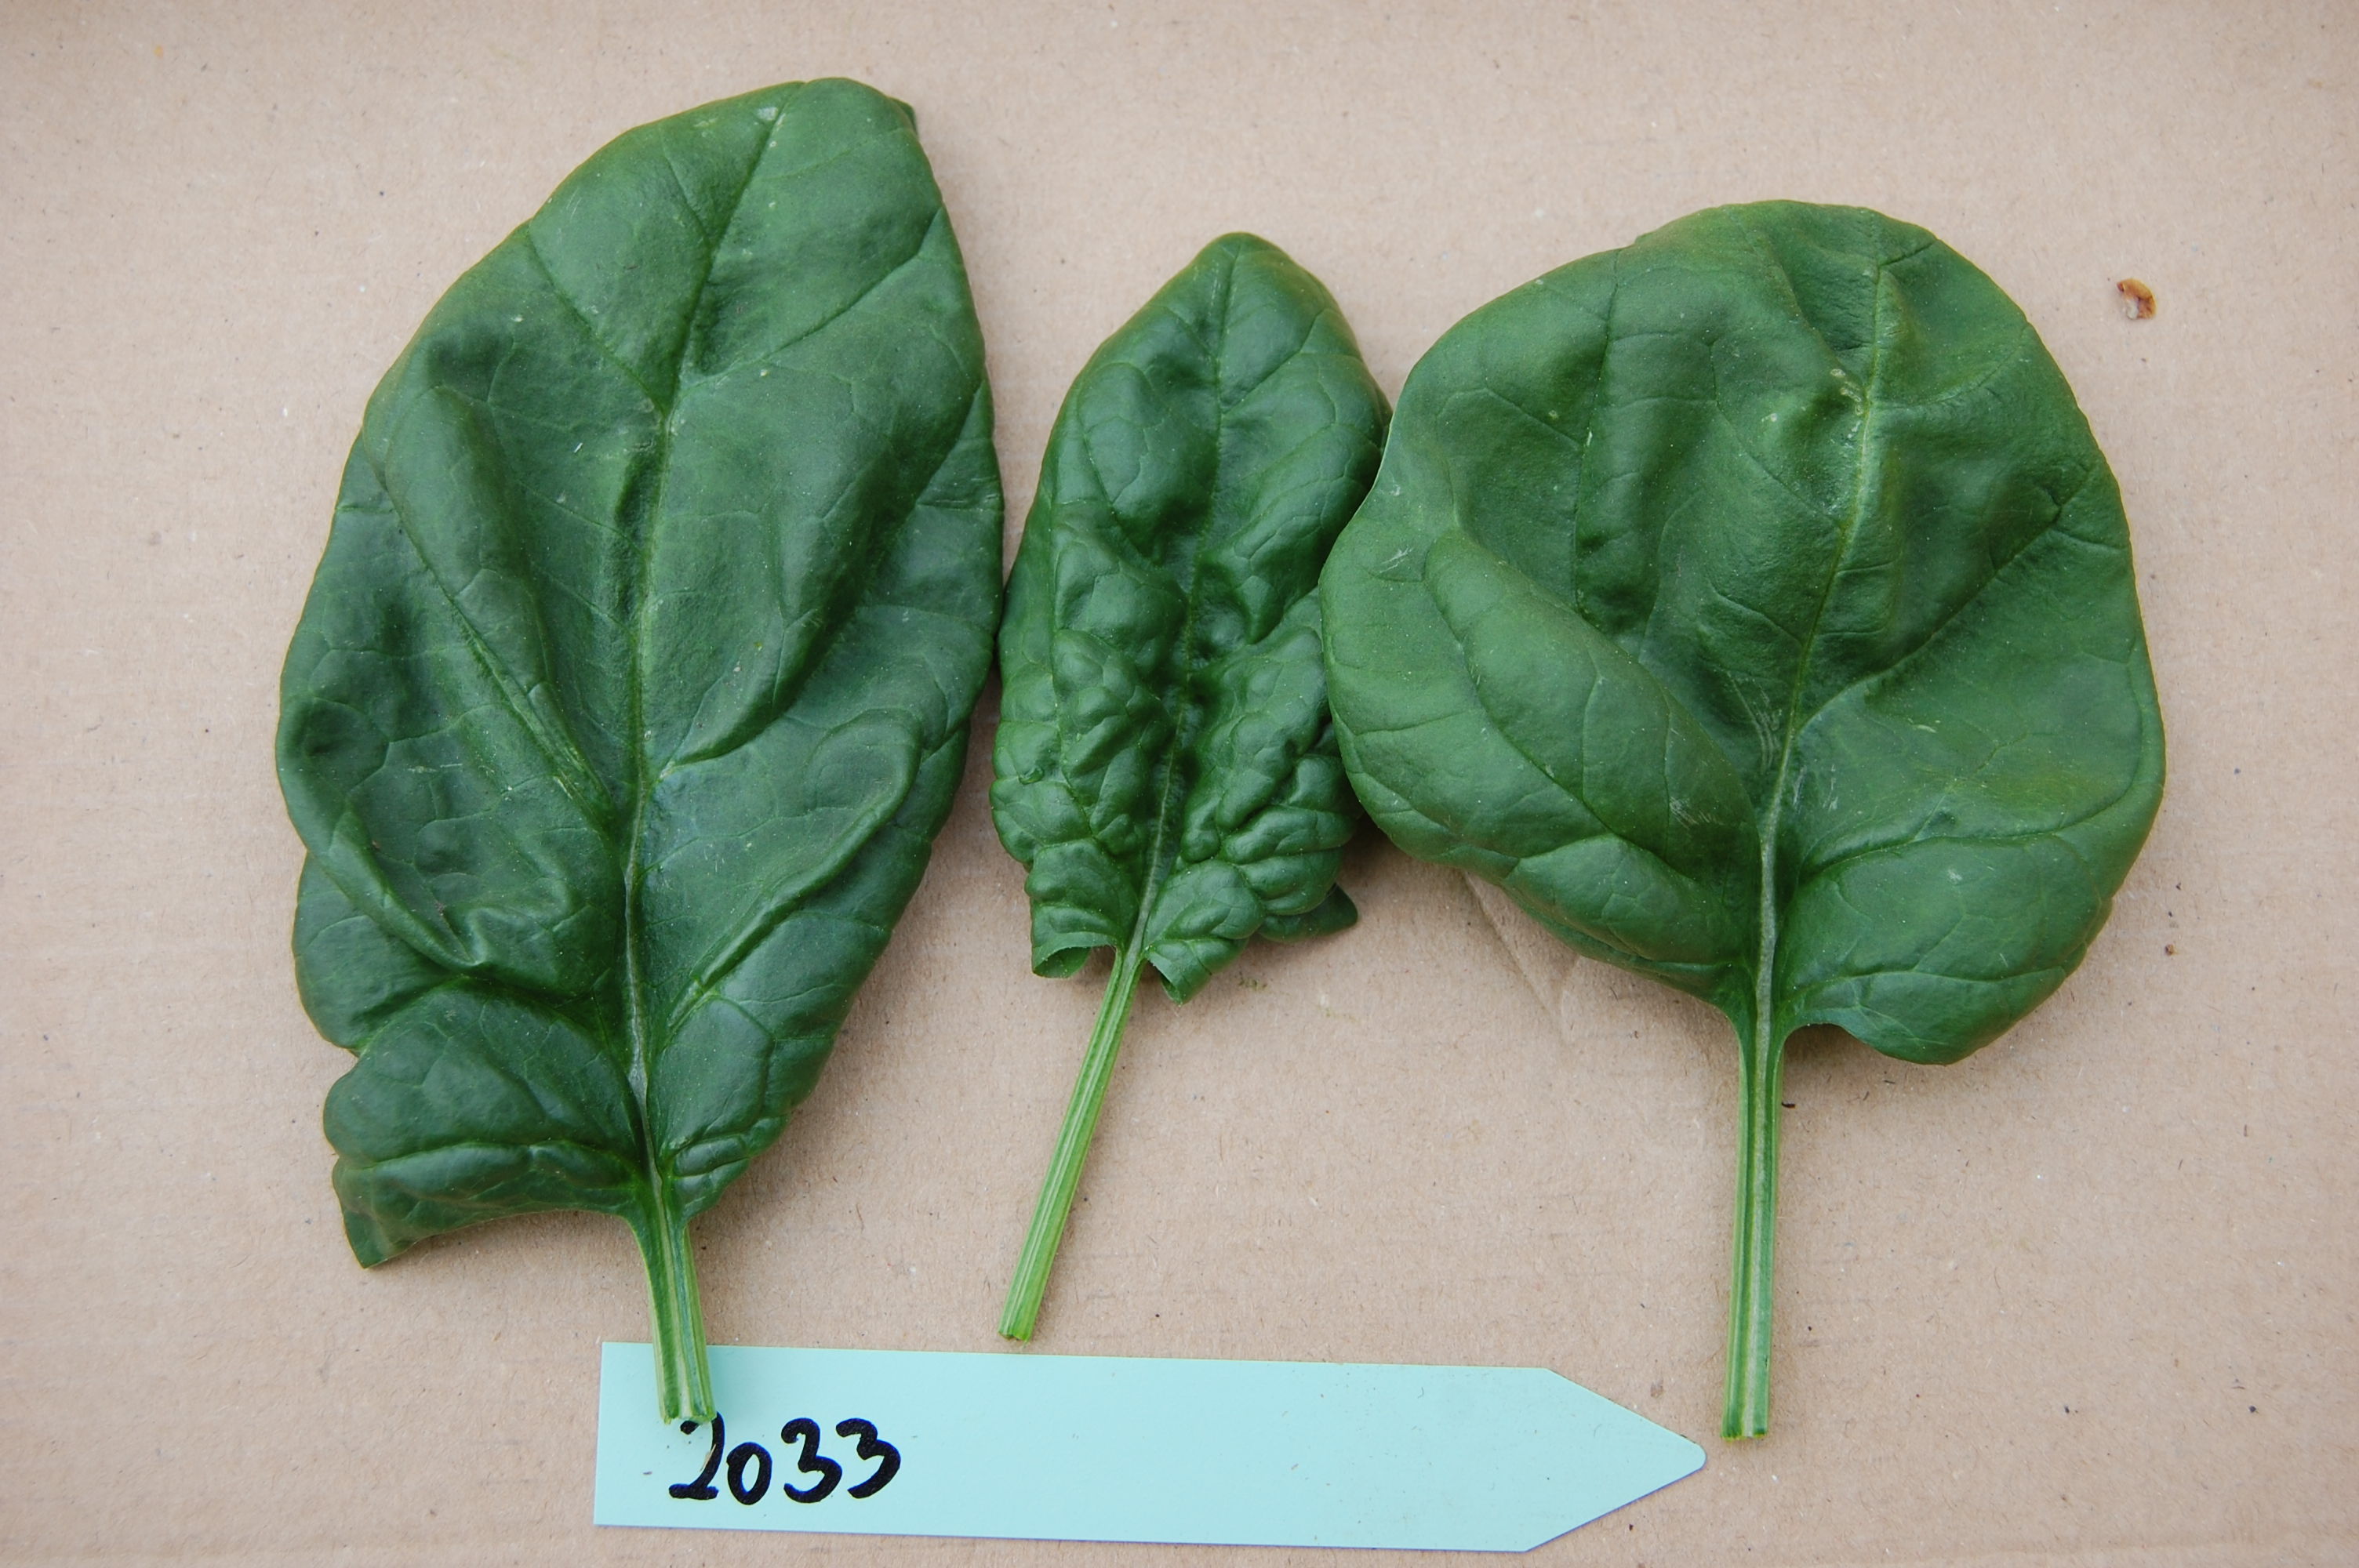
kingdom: Plantae
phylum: Tracheophyta
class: Magnoliopsida
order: Caryophyllales
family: Amaranthaceae
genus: Spinacia
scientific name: Spinacia oleracea
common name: Spinach
